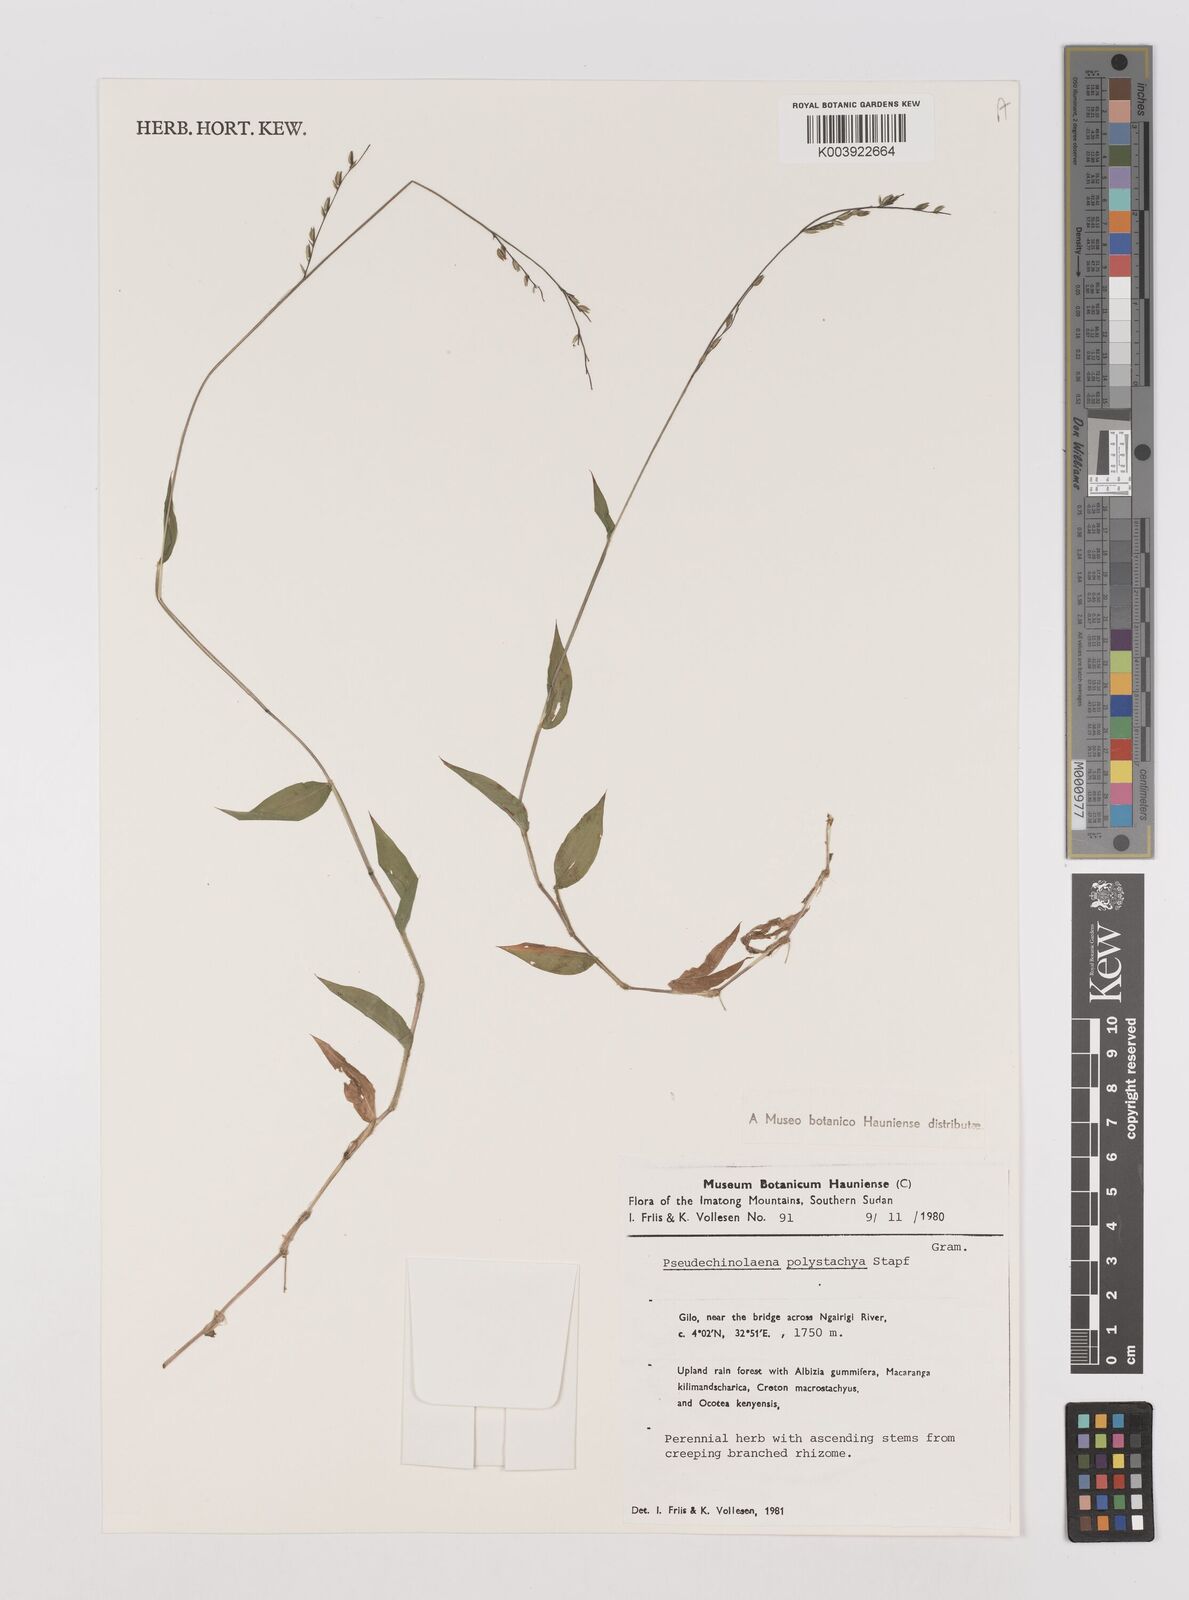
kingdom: Plantae
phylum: Tracheophyta
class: Liliopsida
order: Poales
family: Poaceae
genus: Pseudechinolaena
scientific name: Pseudechinolaena polystachya
